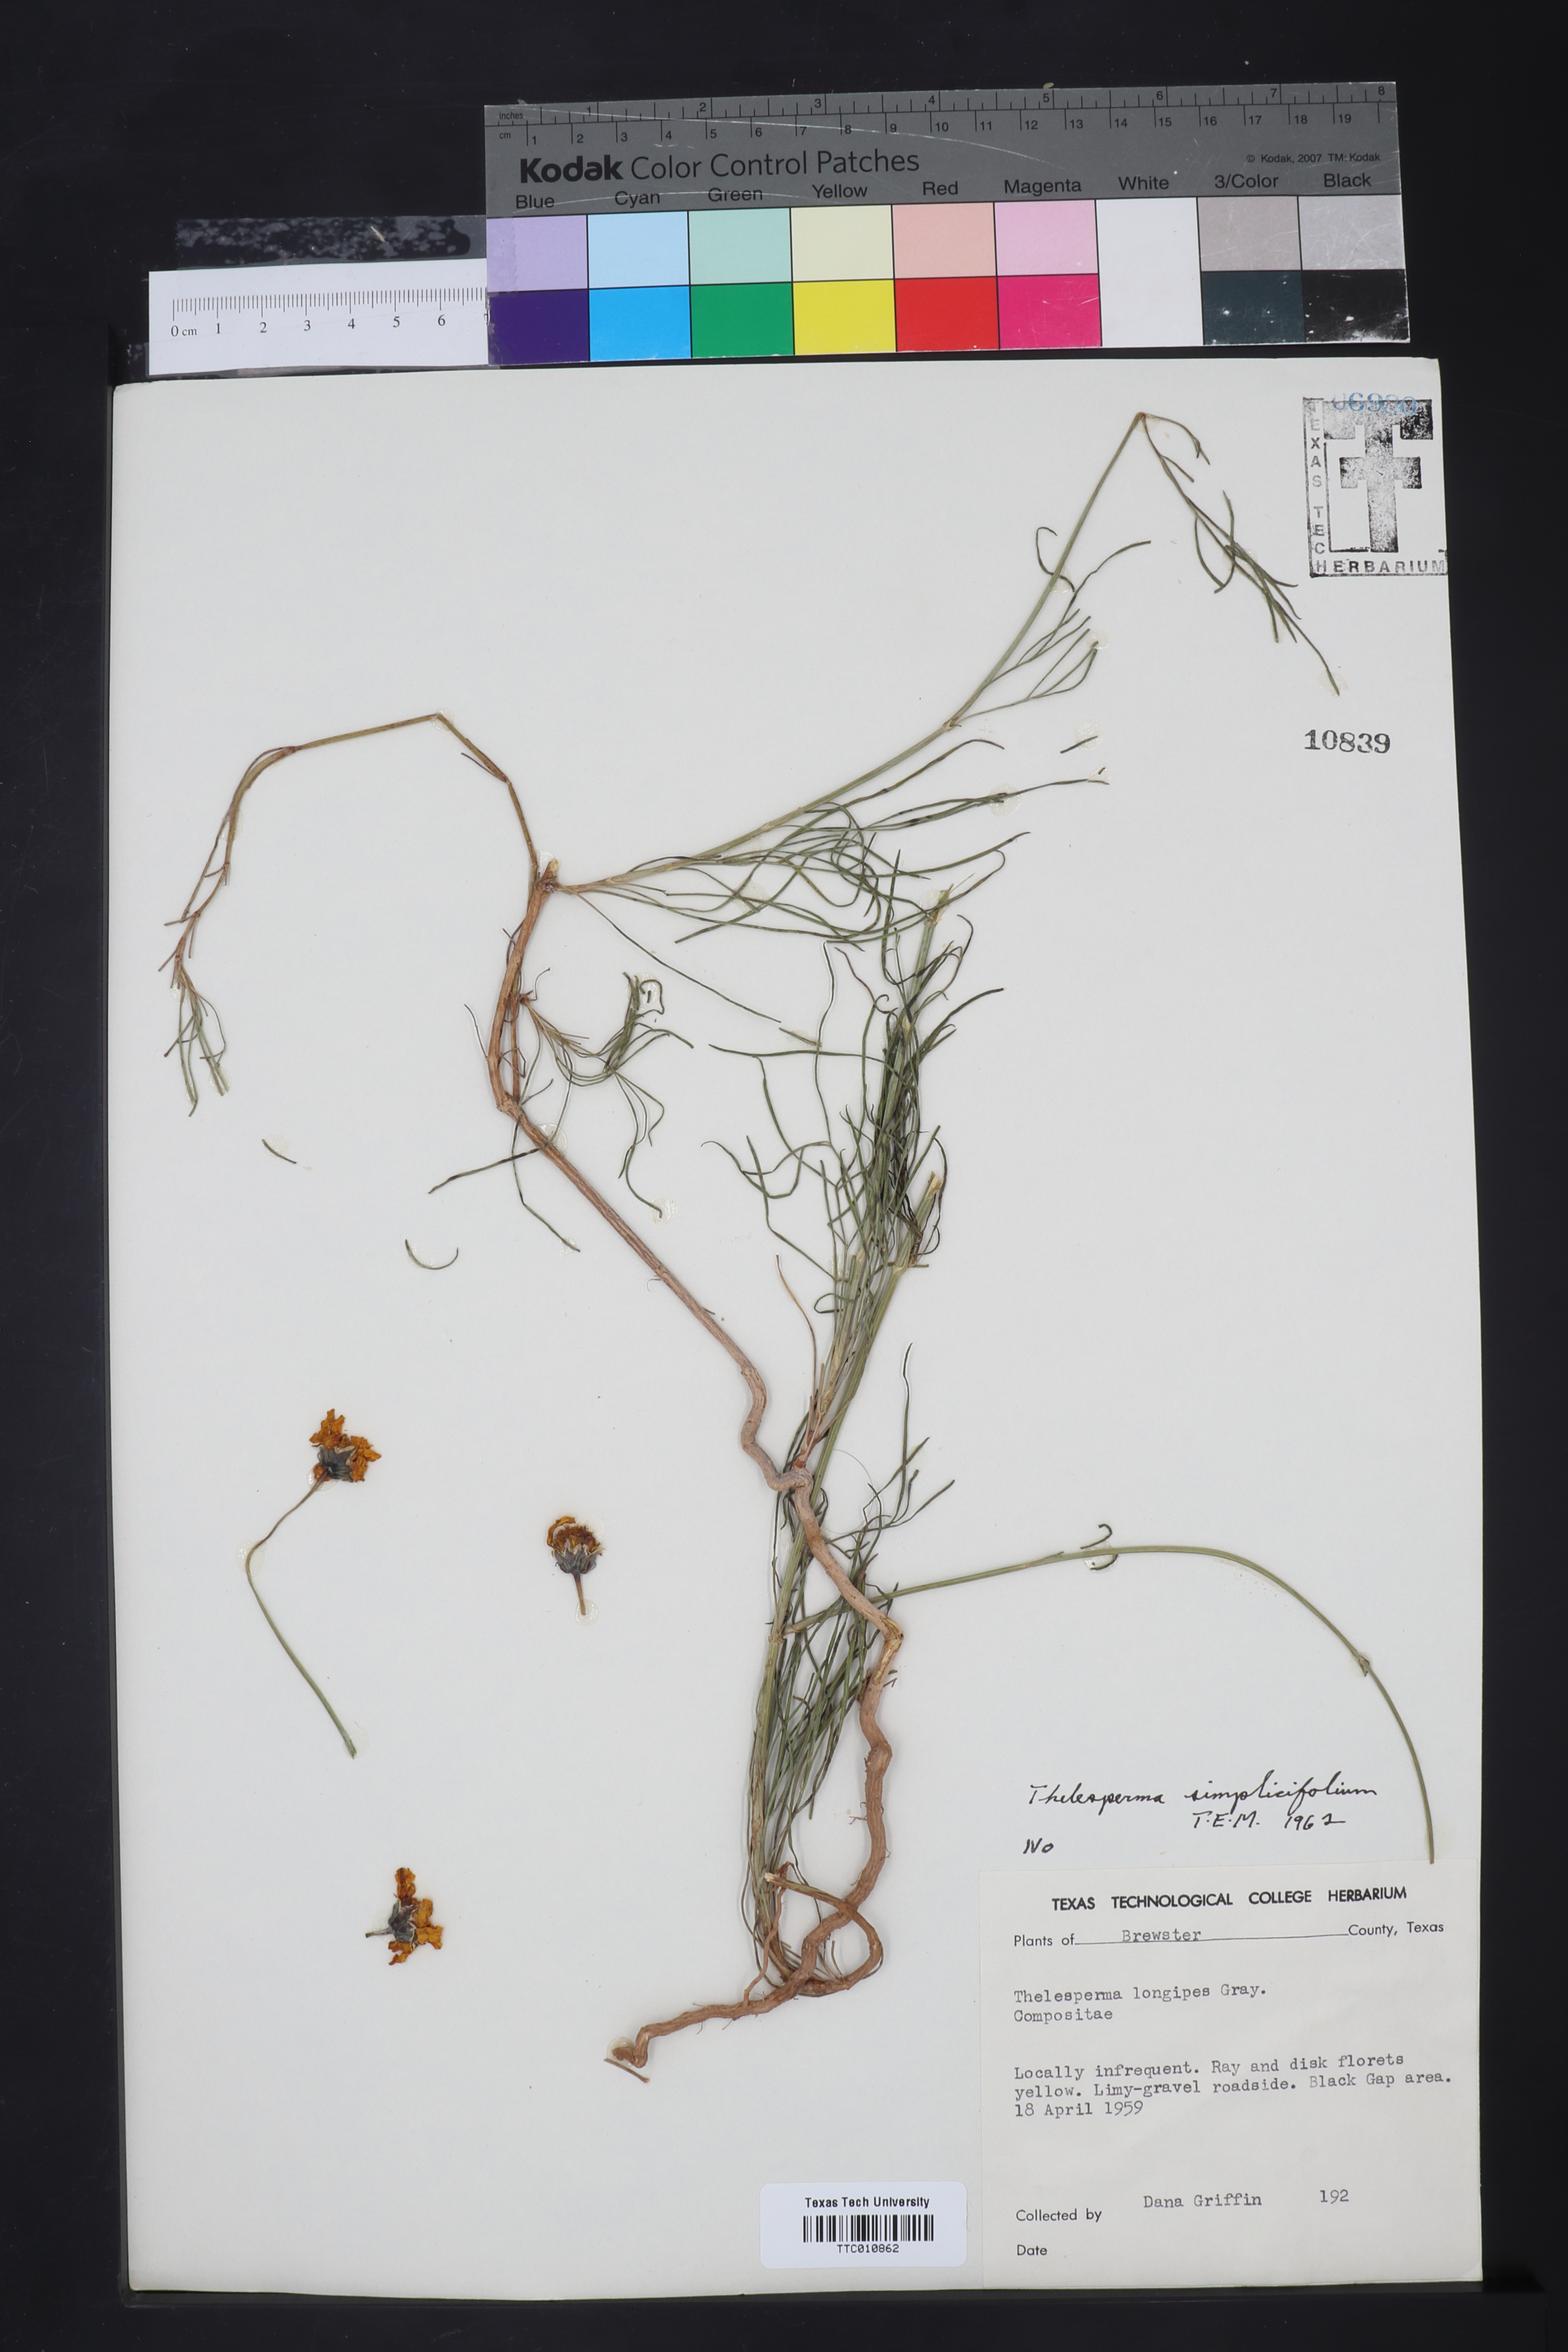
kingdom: Plantae
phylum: Tracheophyta
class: Magnoliopsida
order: Asterales
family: Asteraceae
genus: Thelesperma
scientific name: Thelesperma simplicifolium
